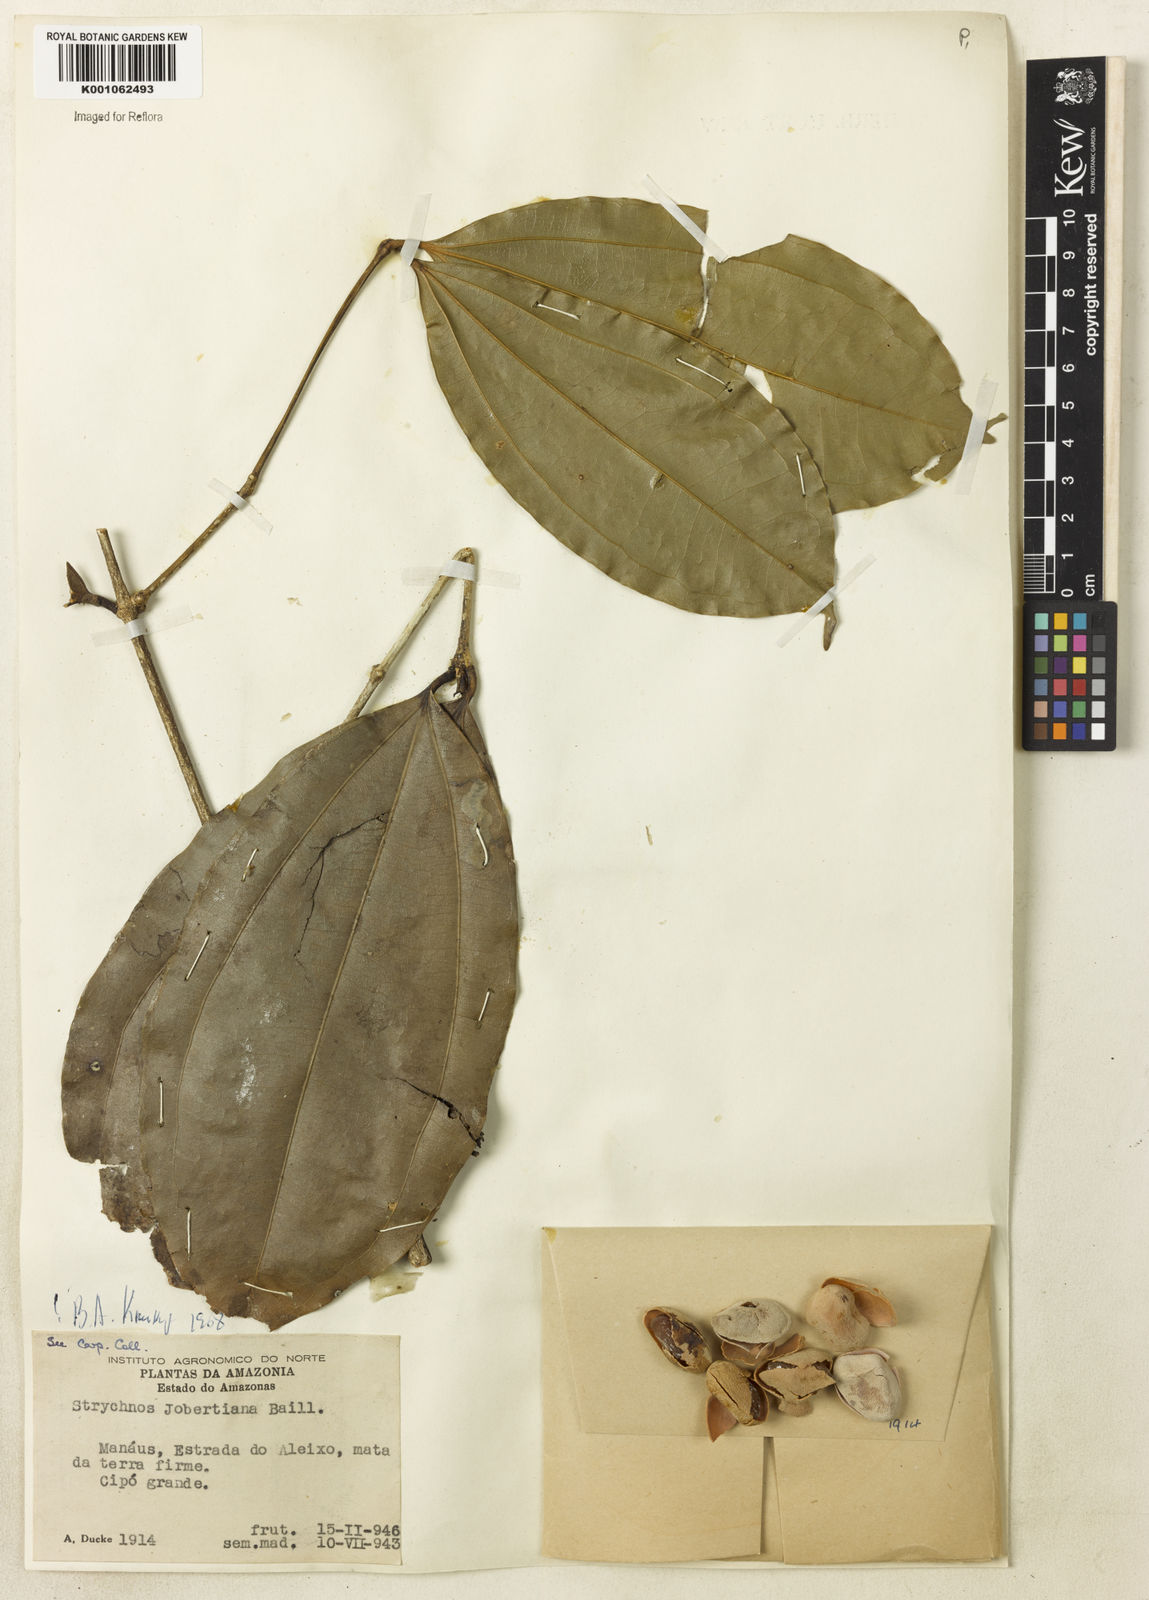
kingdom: Plantae
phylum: Tracheophyta
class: Magnoliopsida
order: Gentianales
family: Loganiaceae
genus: Strychnos
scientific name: Strychnos jobertiana
